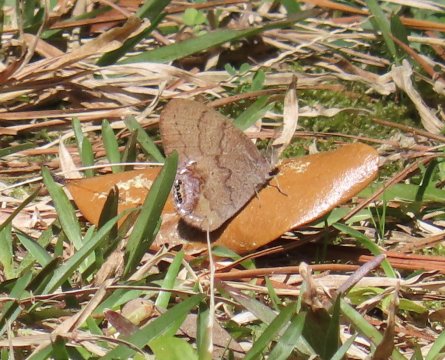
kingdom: Animalia
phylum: Arthropoda
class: Insecta
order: Lepidoptera
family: Nymphalidae
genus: Euptychia
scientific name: Euptychia cornelius
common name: Gemmed Satyr
